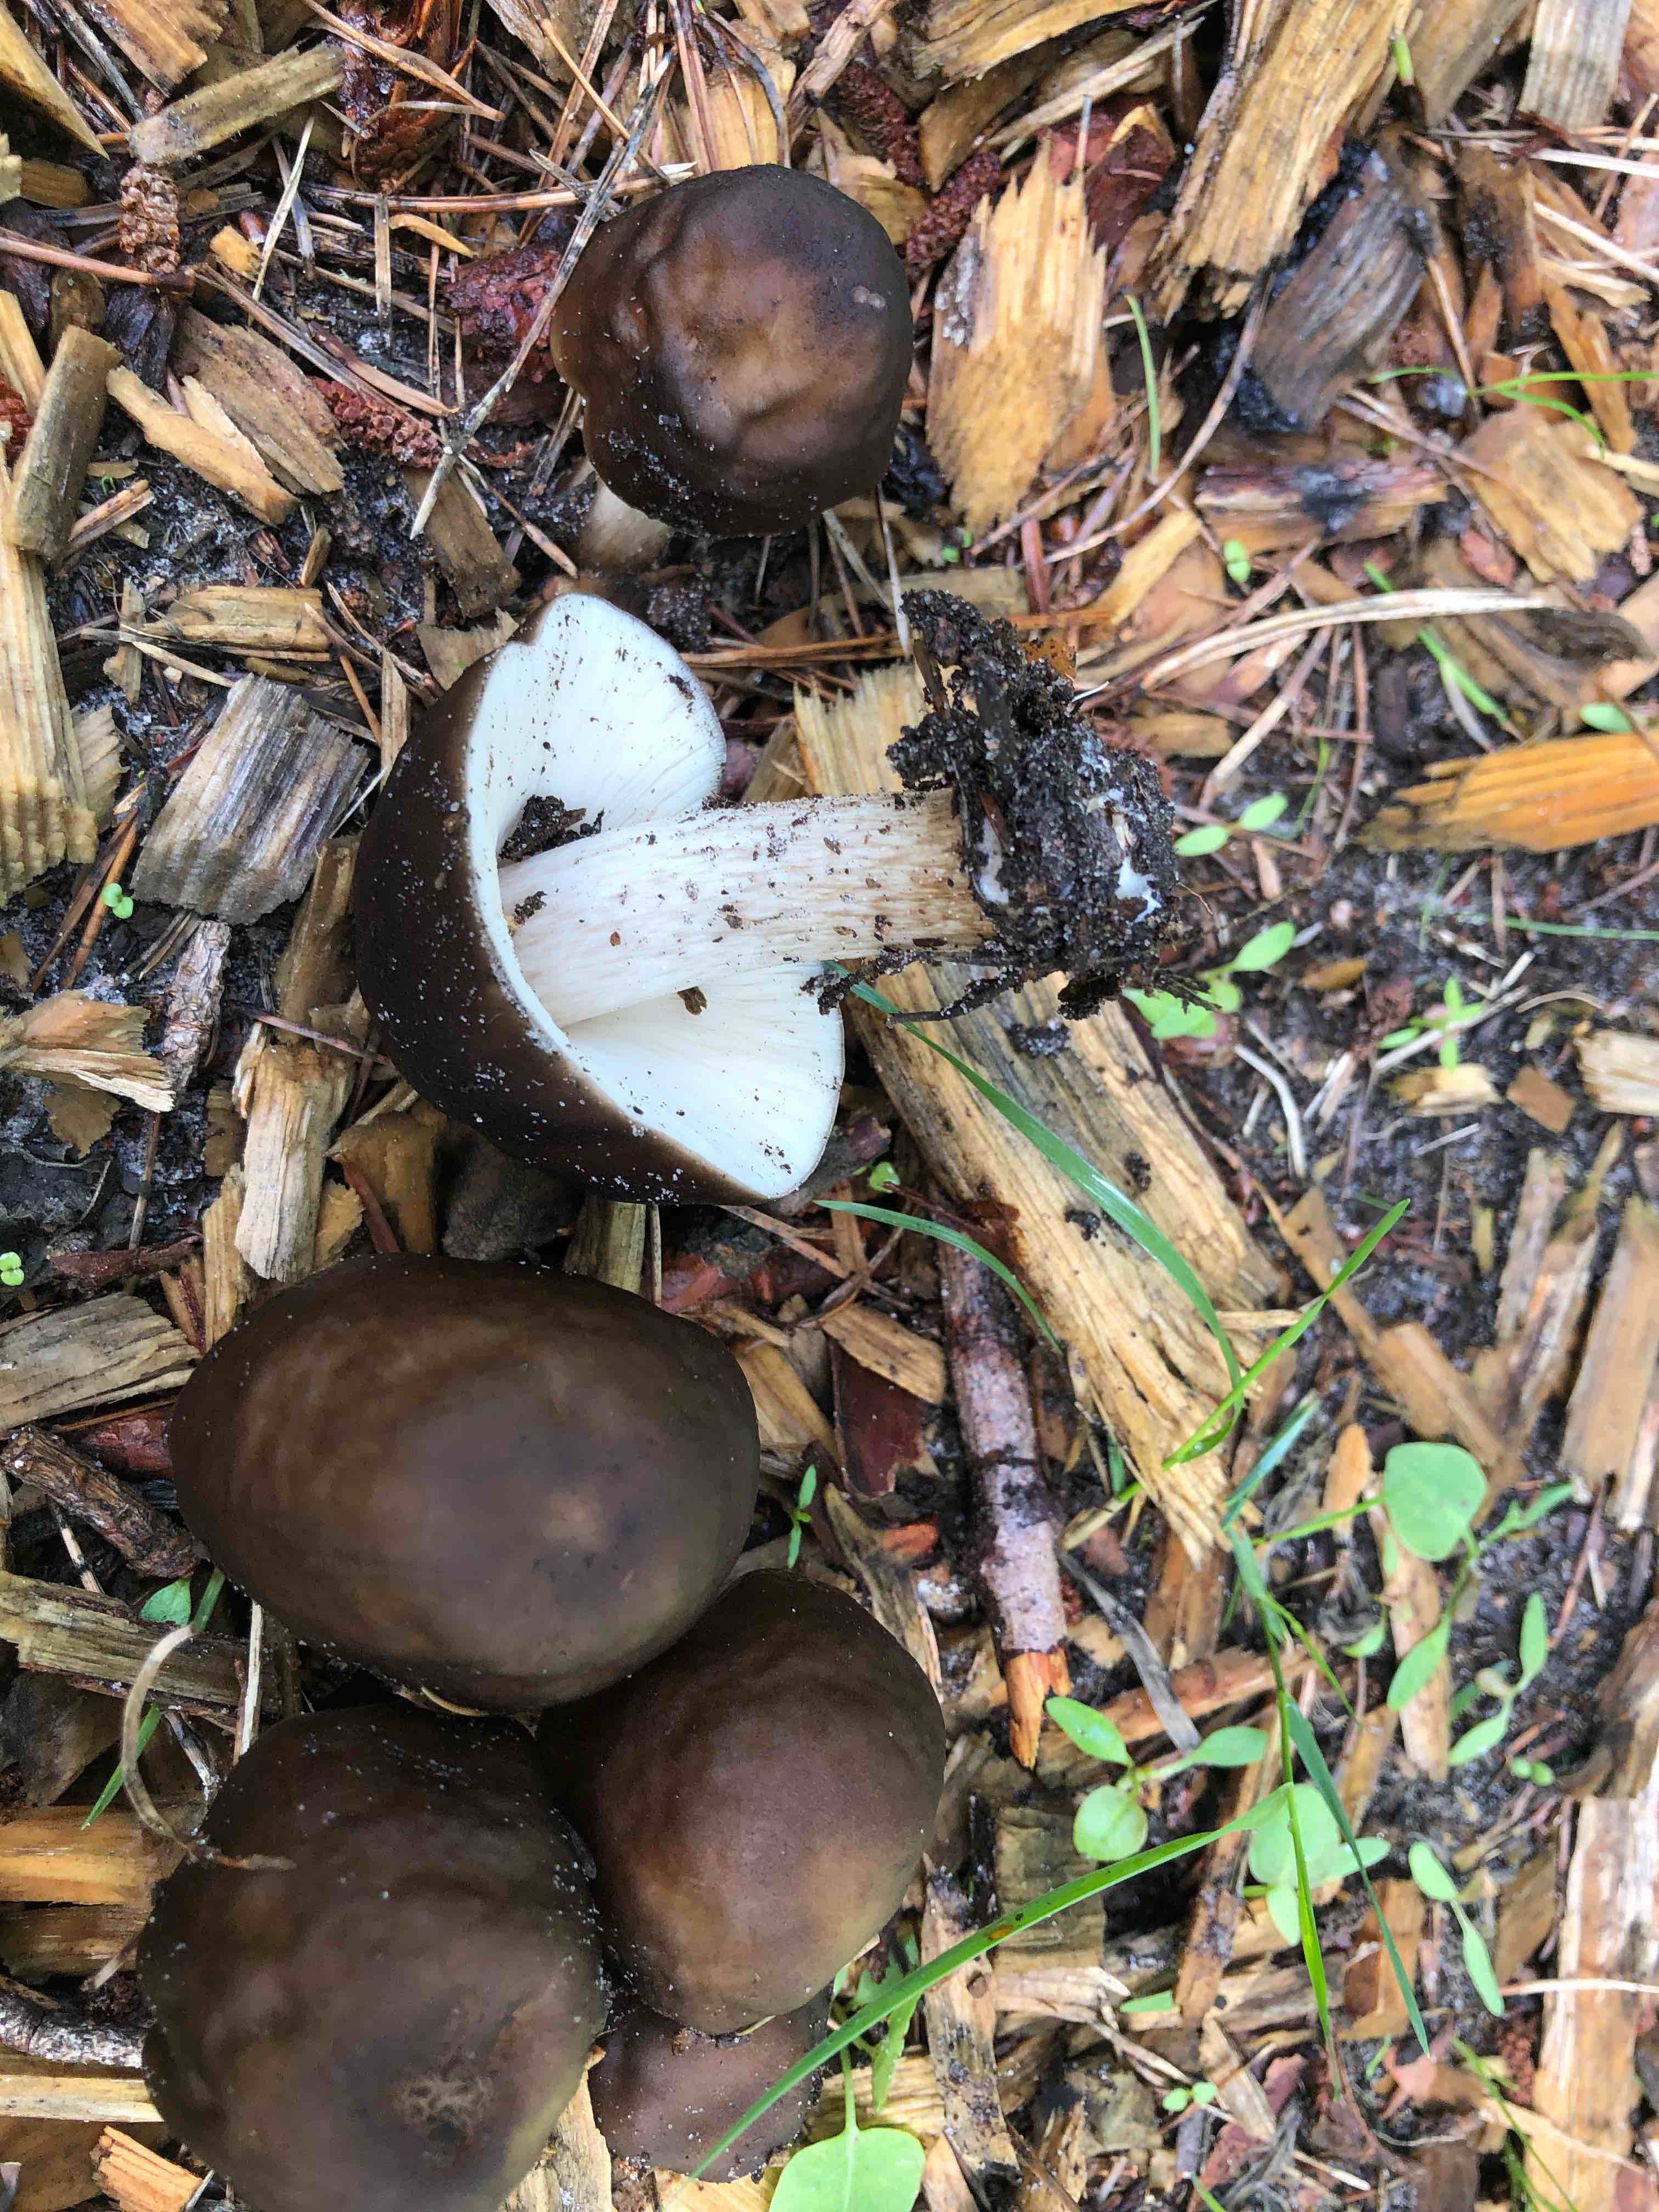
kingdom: Fungi
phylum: Basidiomycota
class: Agaricomycetes
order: Agaricales
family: Pluteaceae
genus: Pluteus
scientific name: Pluteus cervinus
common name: sodfarvet skærmhat
